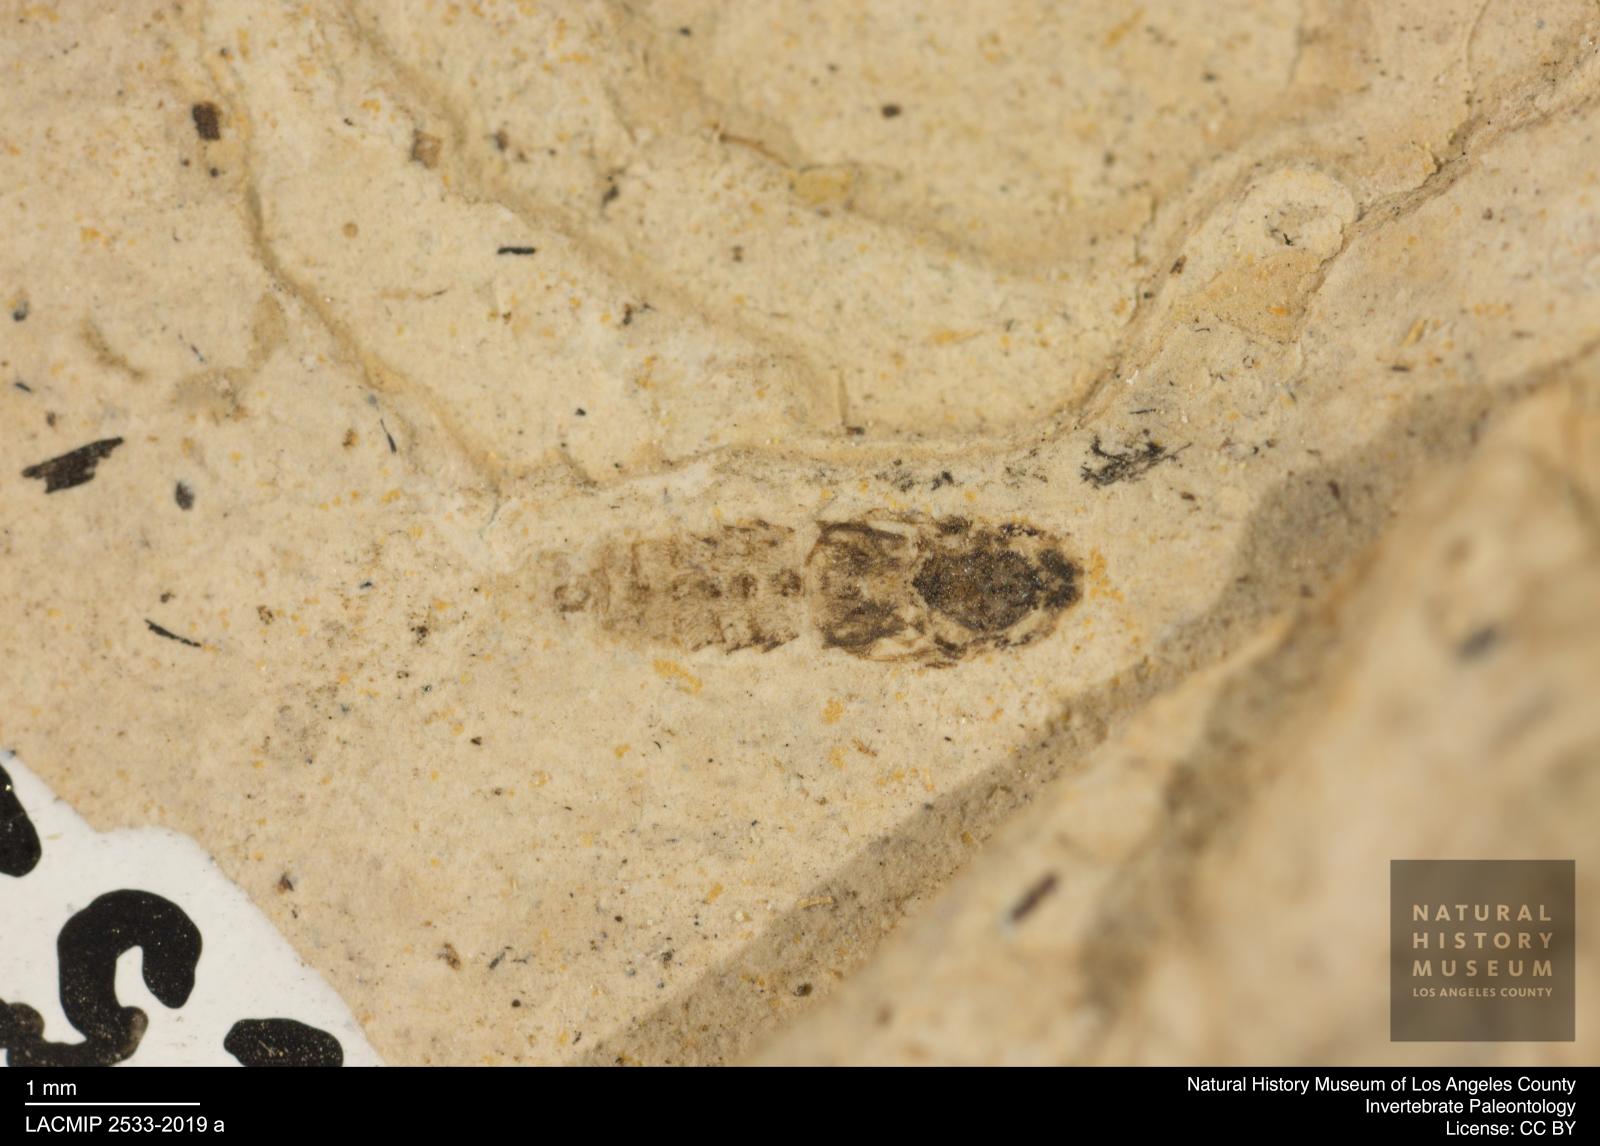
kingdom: Animalia
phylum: Arthropoda
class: Insecta
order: Diptera
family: Ceratopogonidae
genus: Ceratopogon
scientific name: Ceratopogon
